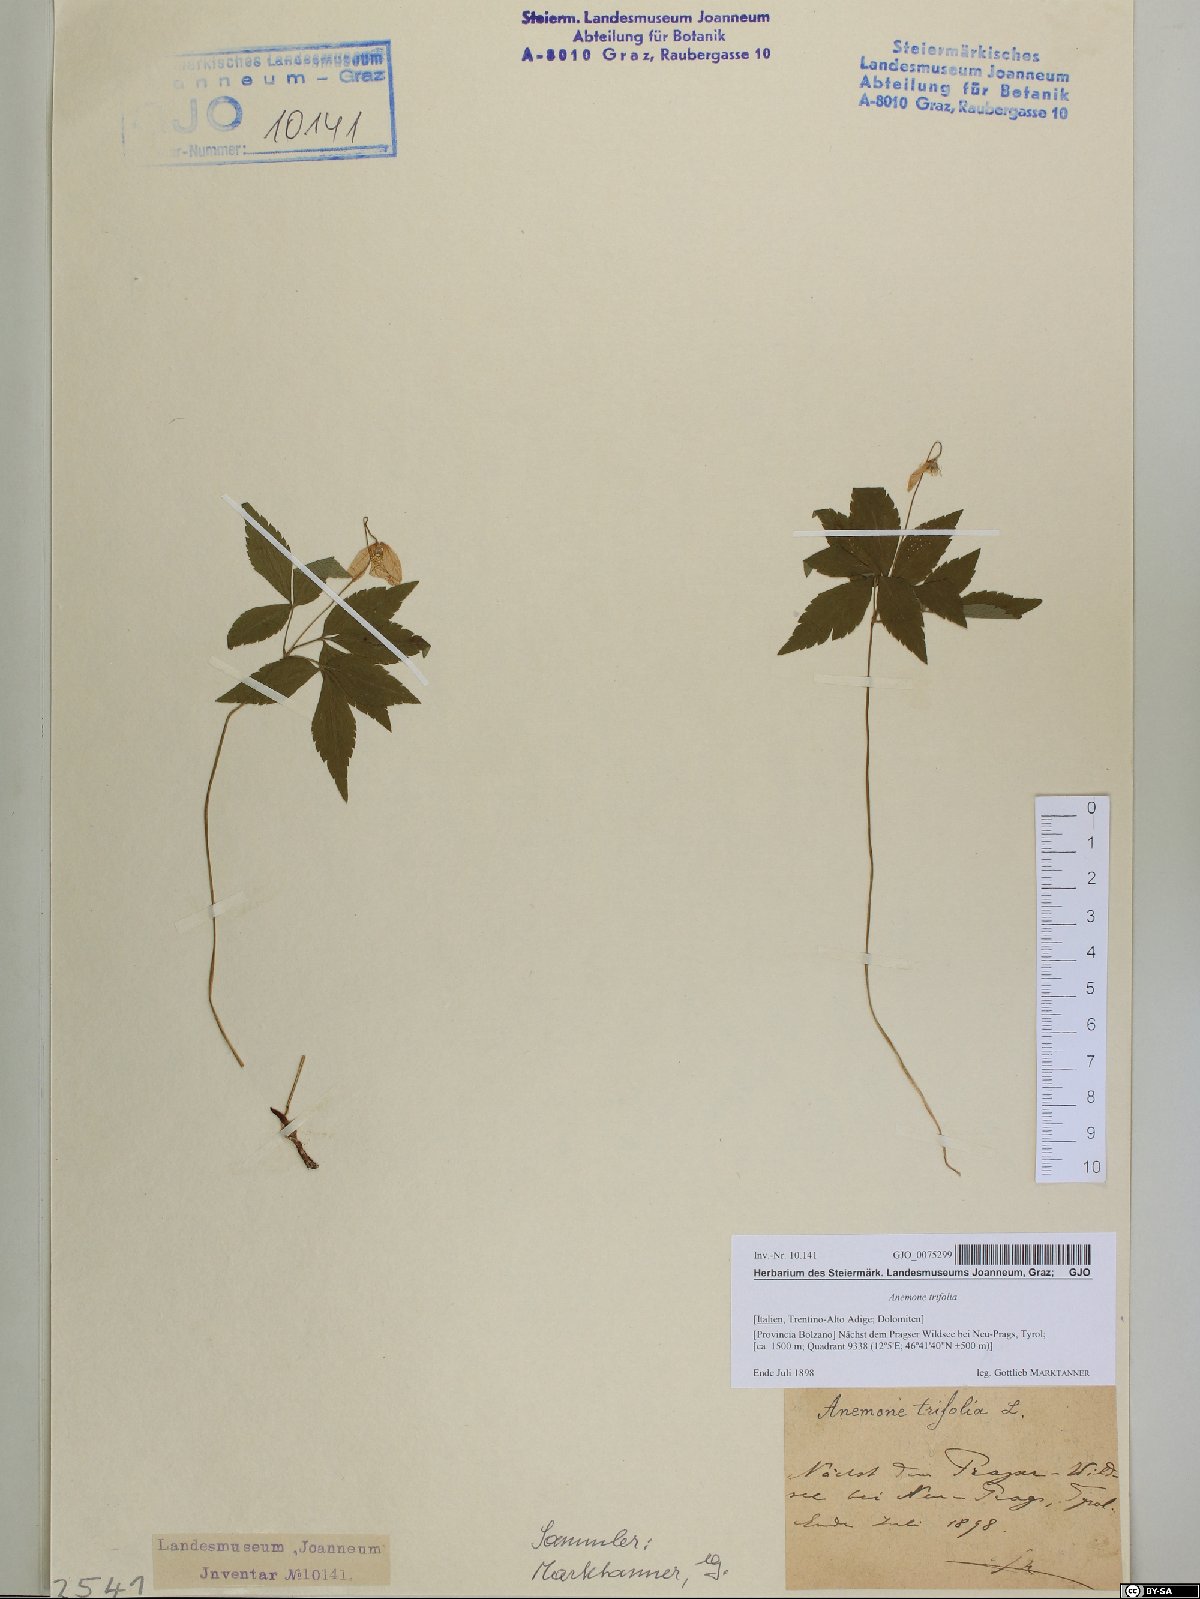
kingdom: Plantae
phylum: Tracheophyta
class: Magnoliopsida
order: Ranunculales
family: Ranunculaceae
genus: Anemone
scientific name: Anemone trifolia
